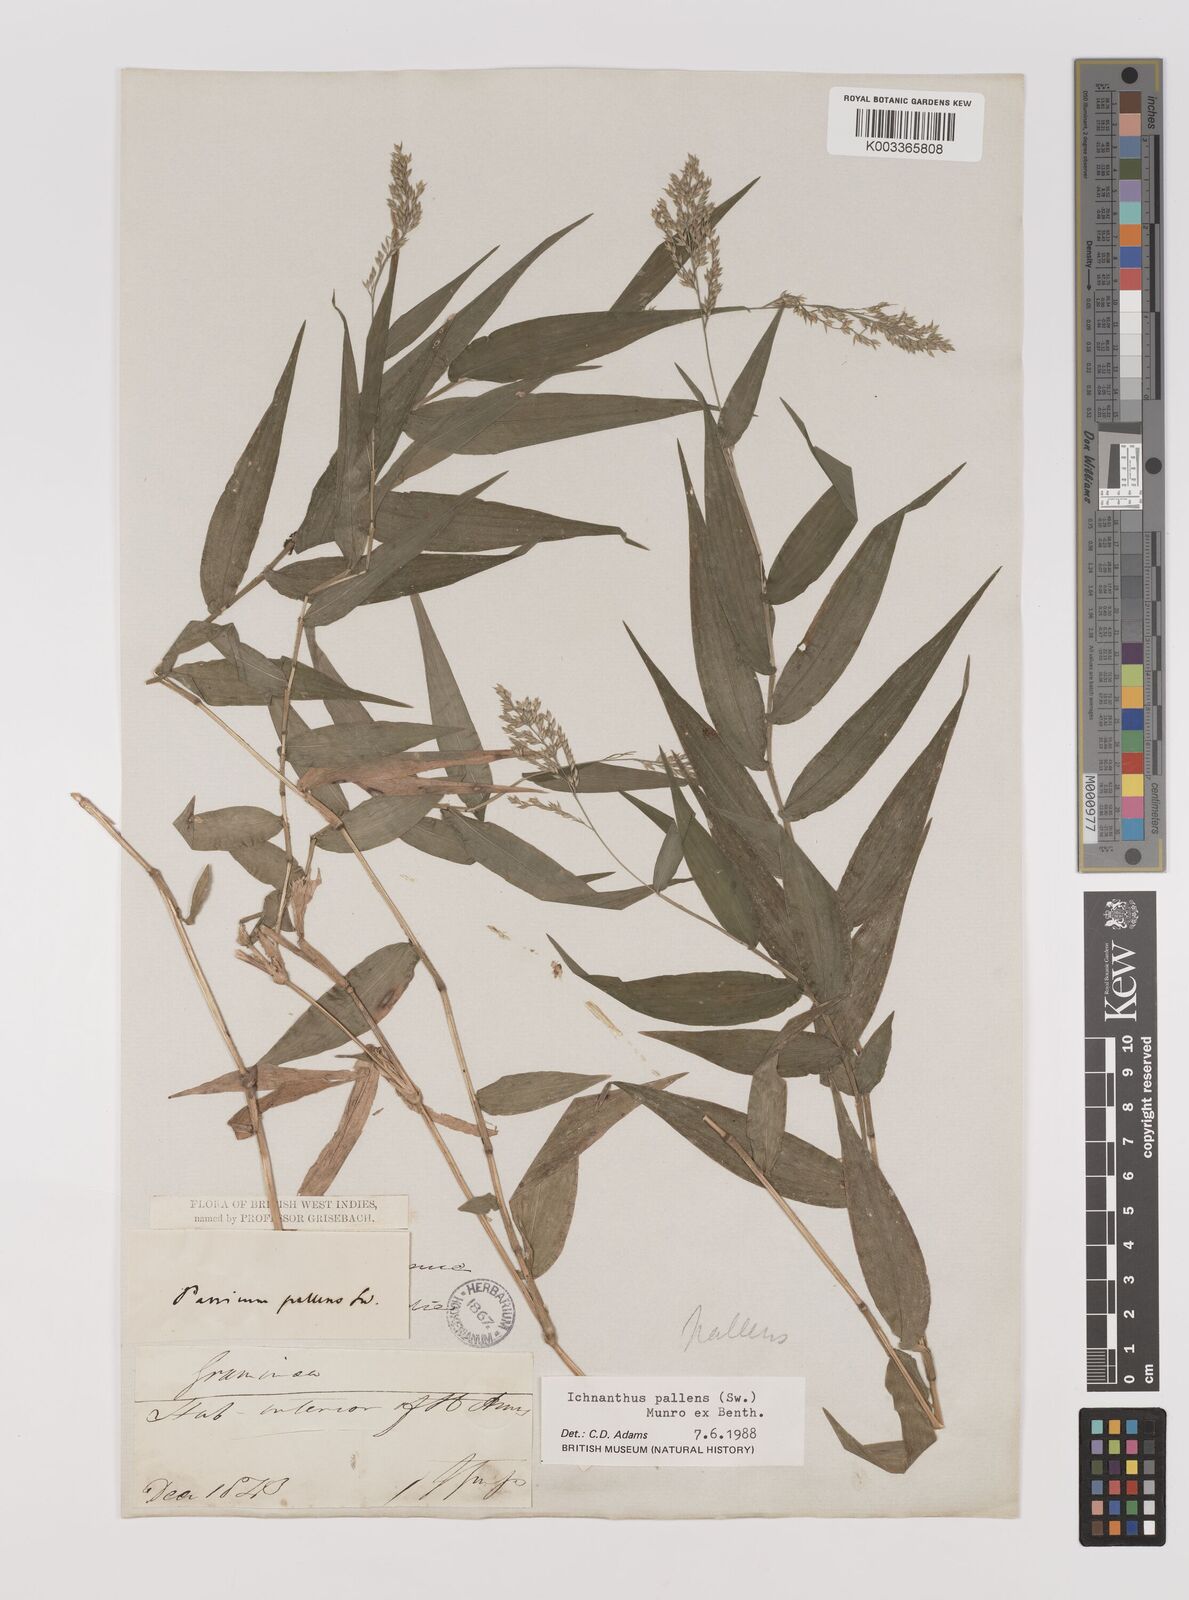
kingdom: Plantae
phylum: Tracheophyta
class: Liliopsida
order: Poales
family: Poaceae
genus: Ichnanthus
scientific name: Ichnanthus pallens
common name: Water grass
